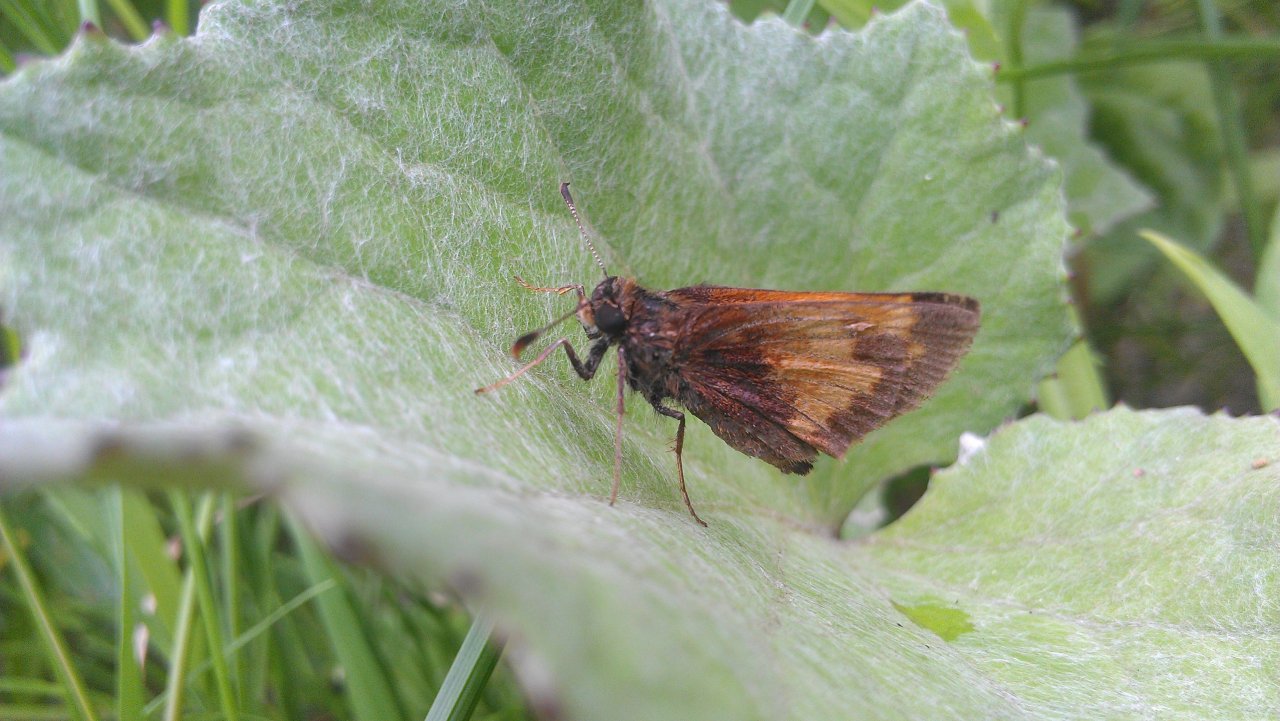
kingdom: Animalia
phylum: Arthropoda
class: Insecta
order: Lepidoptera
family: Hesperiidae
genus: Lon
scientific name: Lon hobomok
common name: Hobomok Skipper
